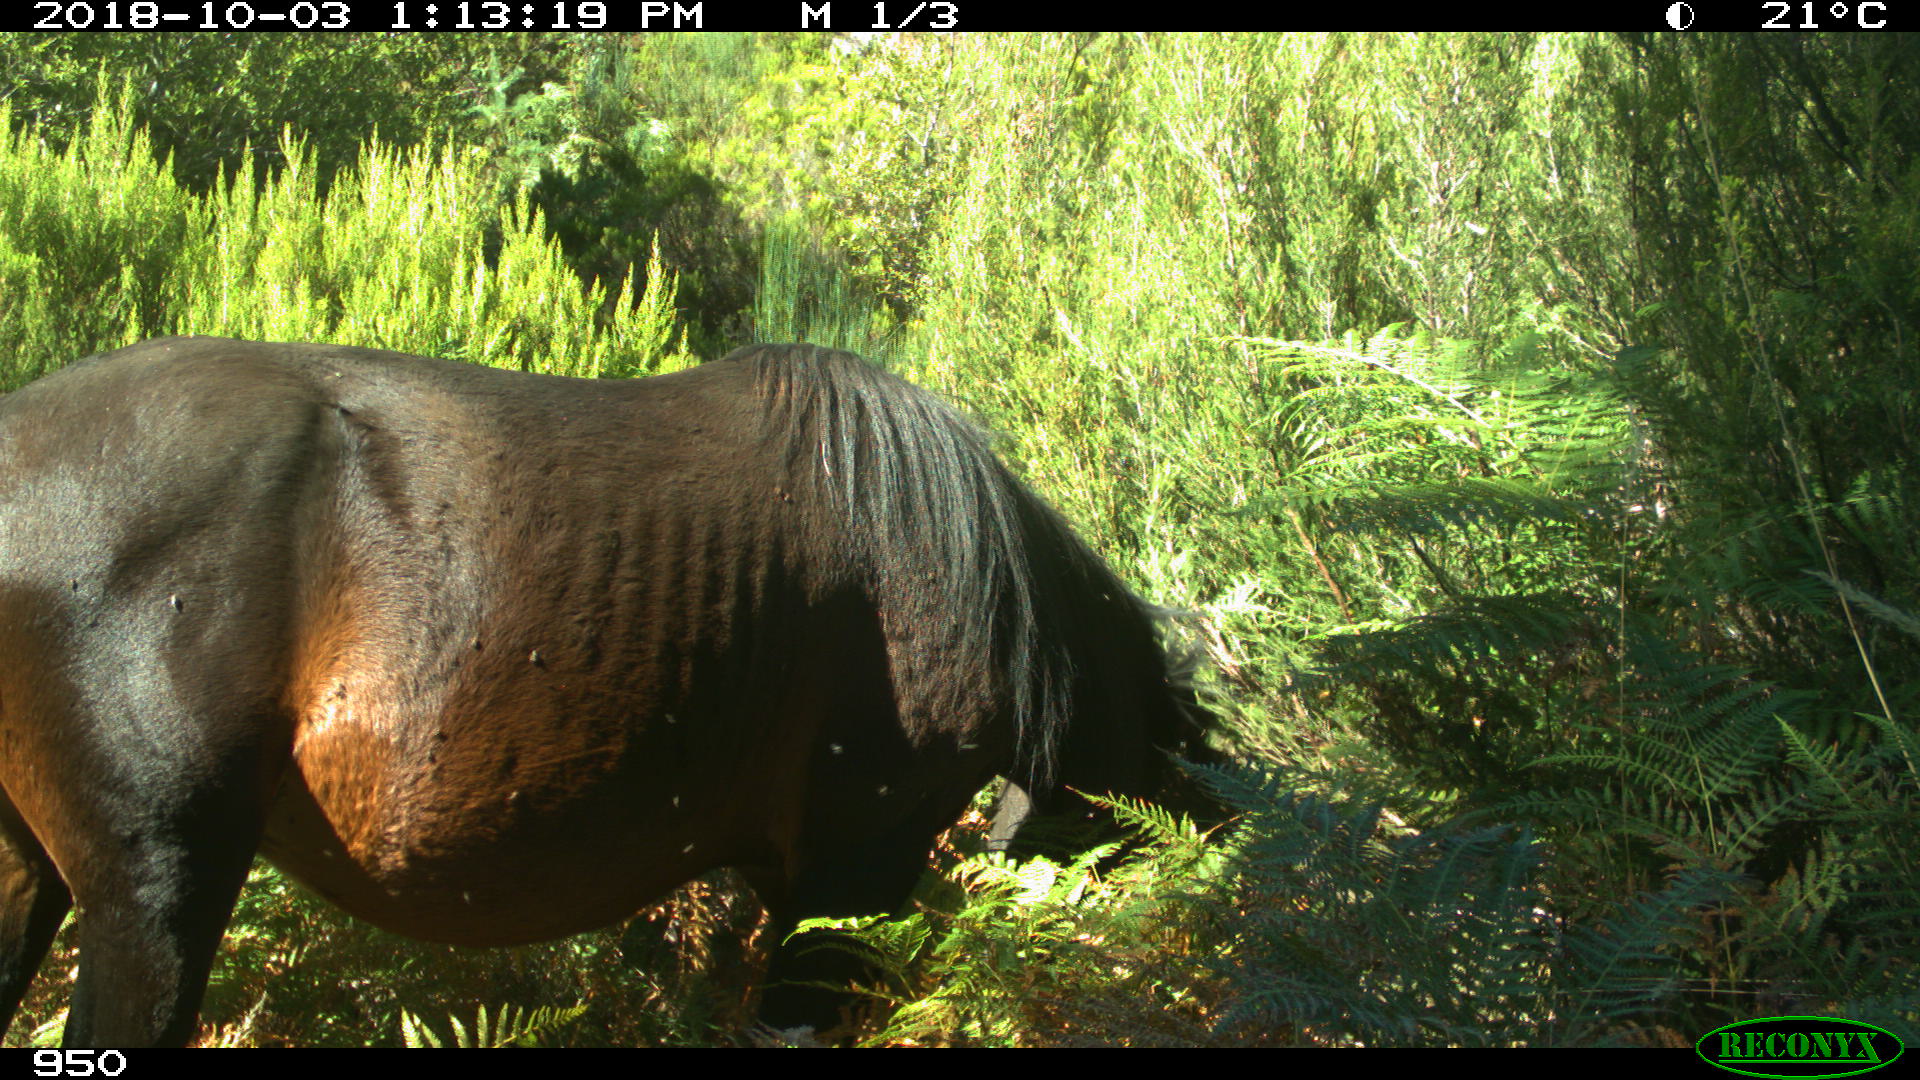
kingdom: Animalia
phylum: Chordata
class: Mammalia
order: Perissodactyla
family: Equidae
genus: Equus
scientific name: Equus caballus
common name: Horse
